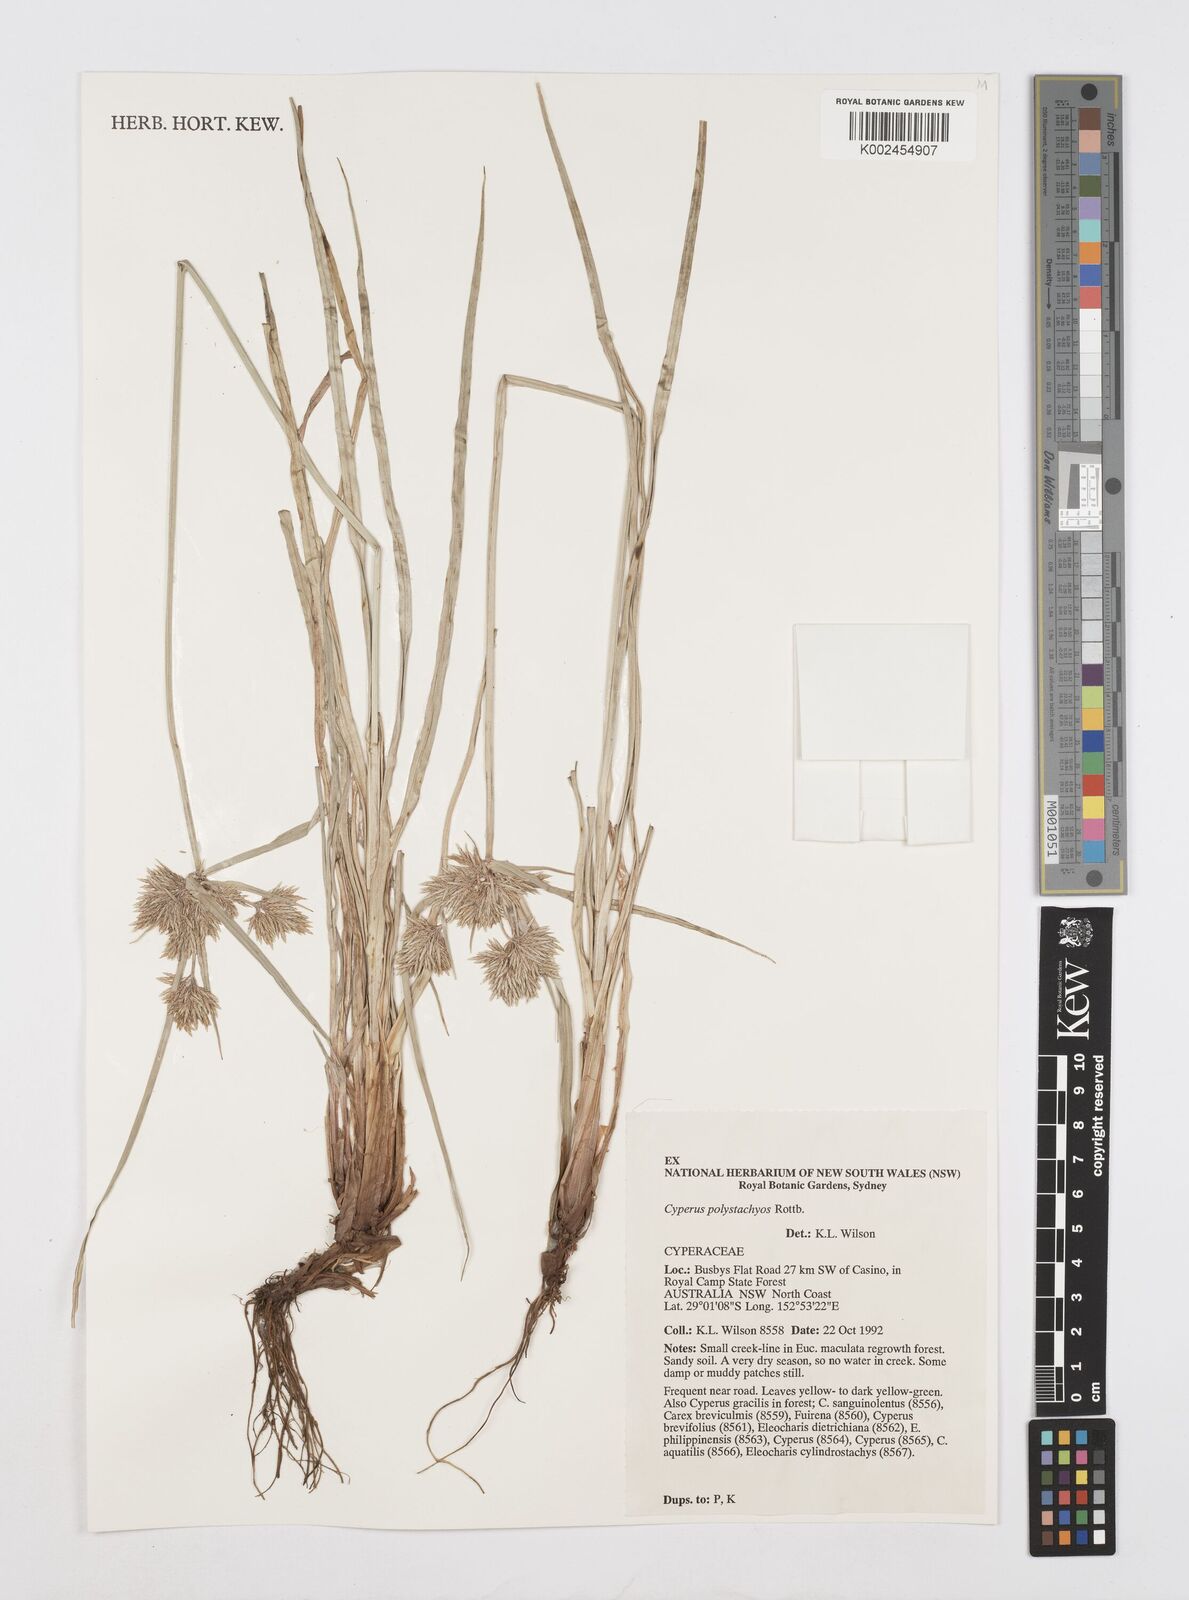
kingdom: Plantae
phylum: Tracheophyta
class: Liliopsida
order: Poales
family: Cyperaceae
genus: Cyperus
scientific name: Cyperus polystachyos
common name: Bunchy flat sedge
